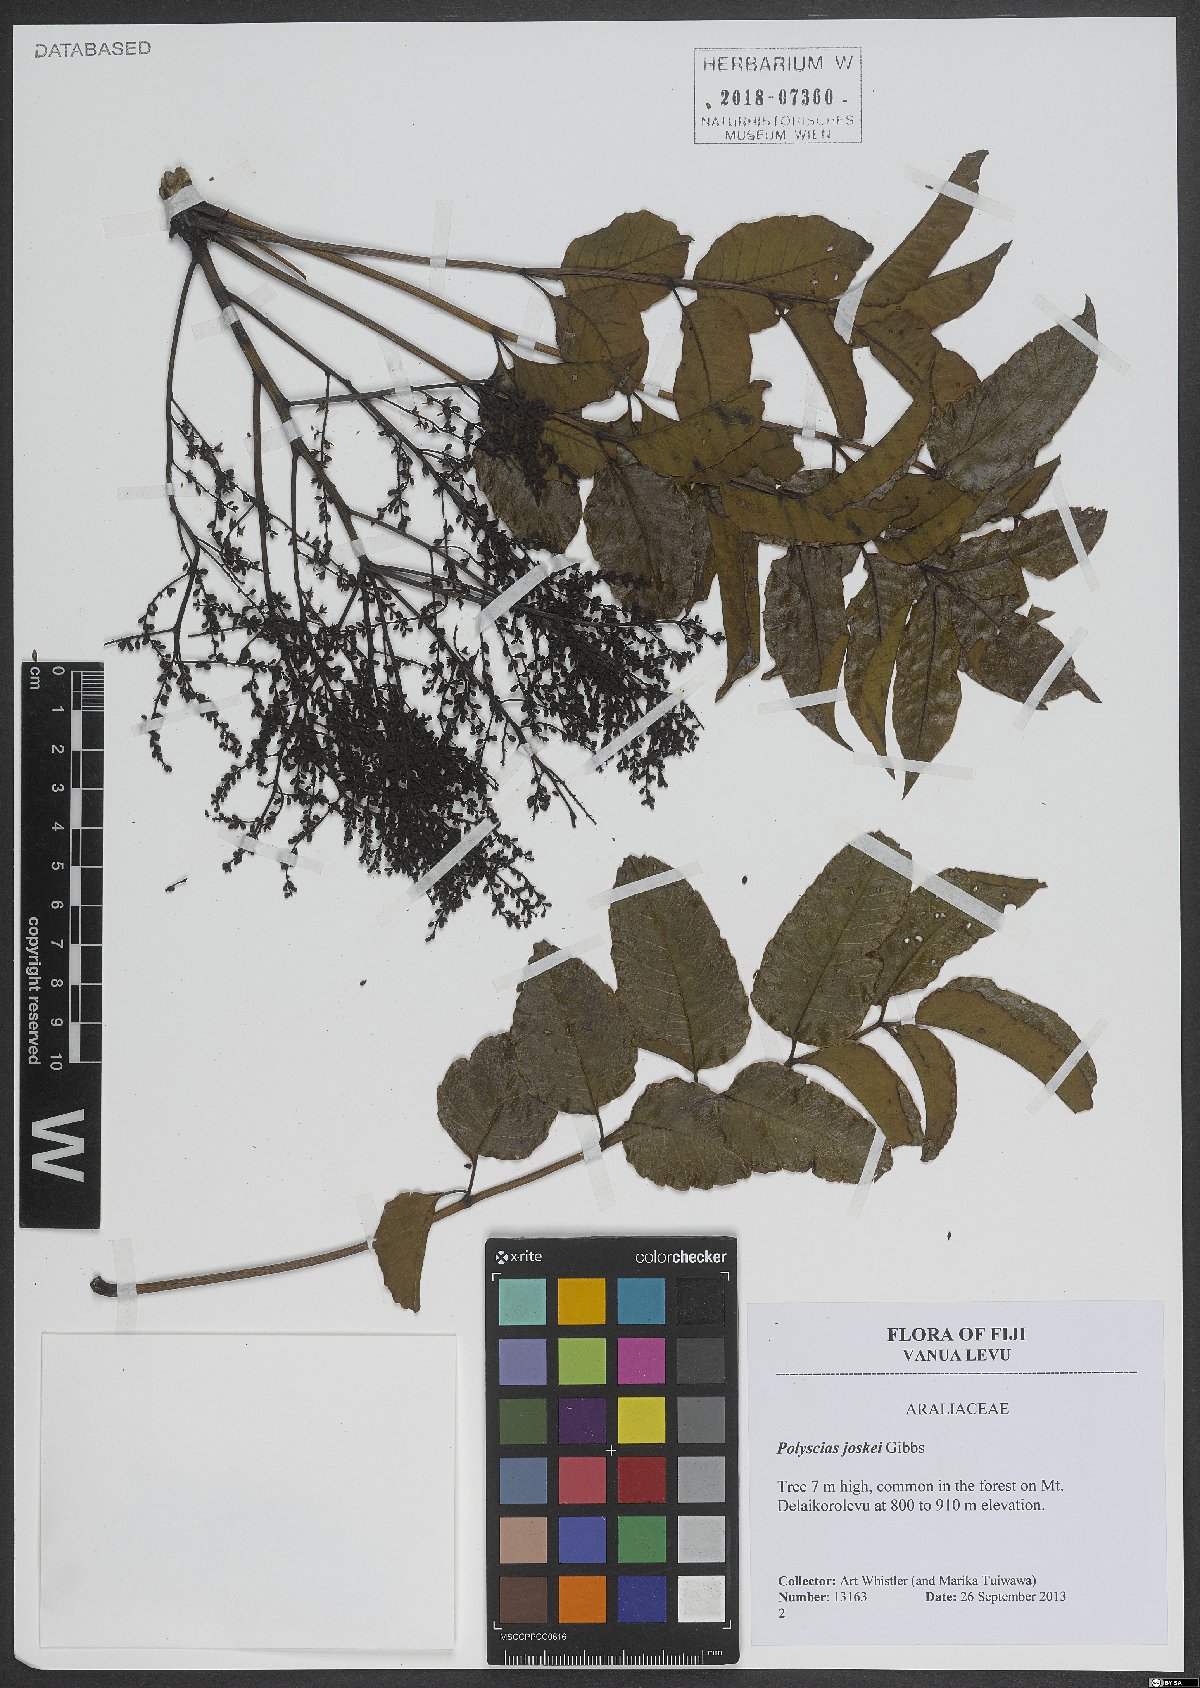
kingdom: Plantae
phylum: Tracheophyta
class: Magnoliopsida
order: Apiales
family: Araliaceae
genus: Polyscias
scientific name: Polyscias joskei
